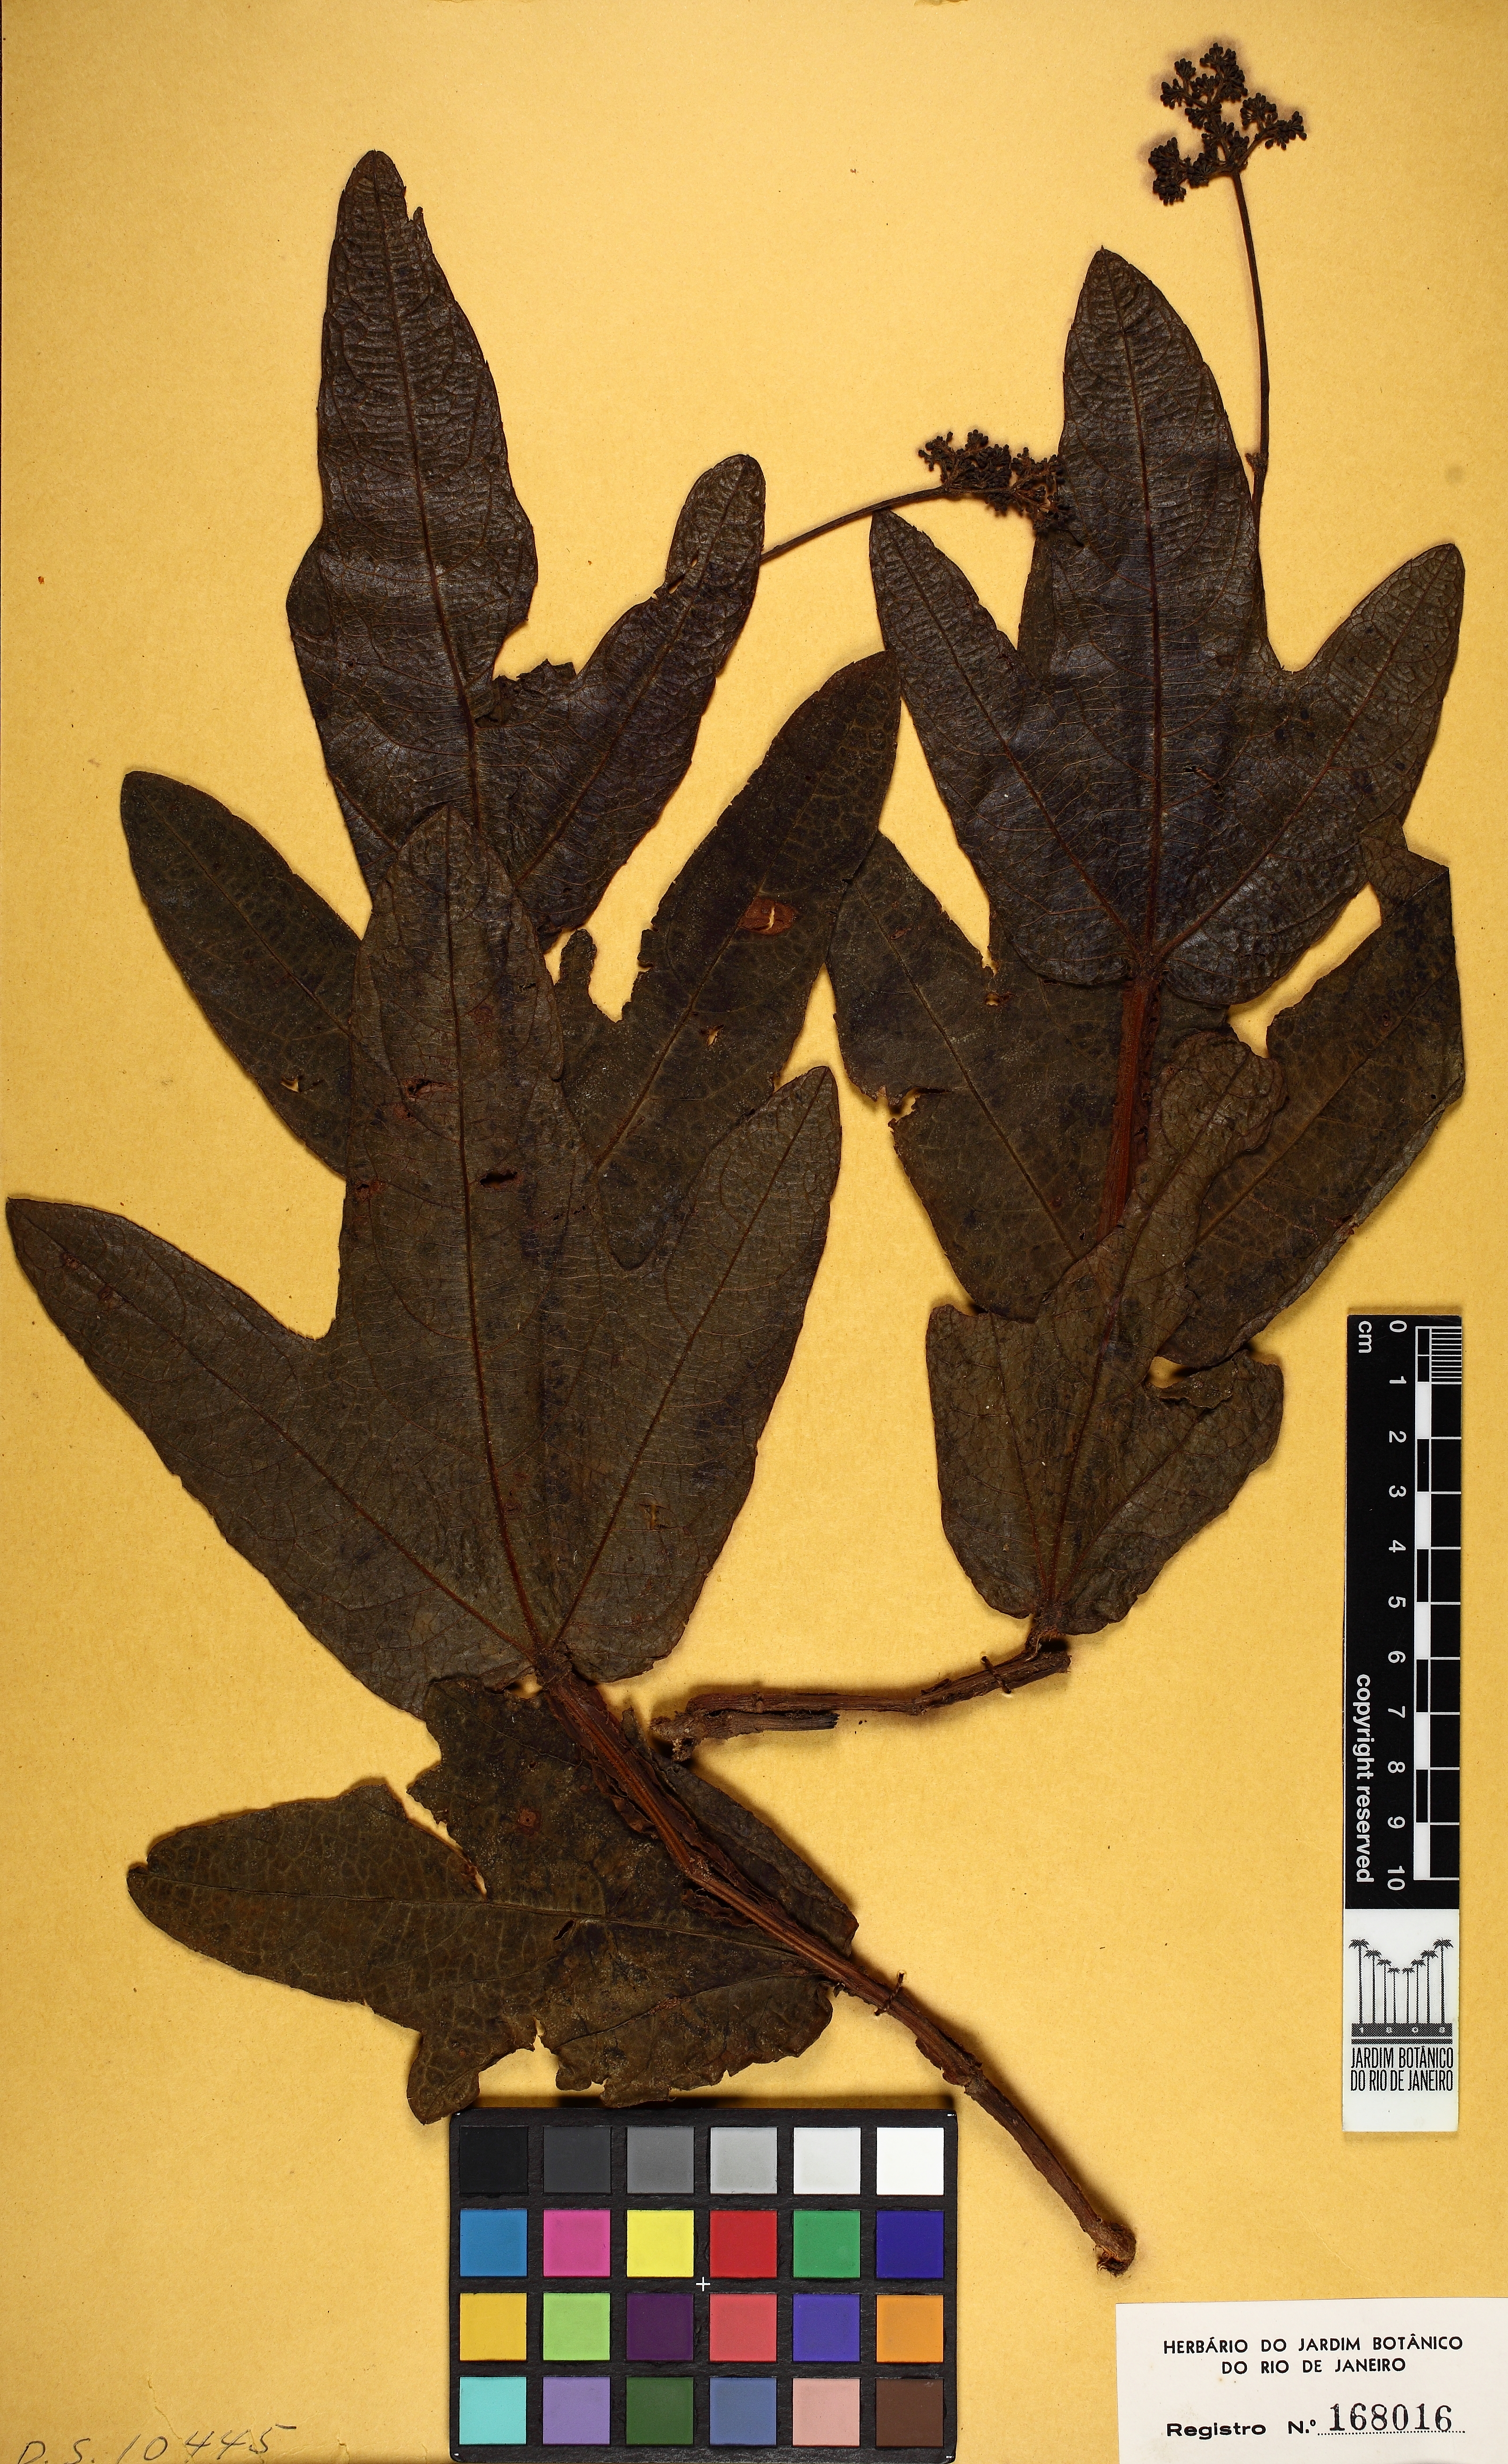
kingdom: Plantae
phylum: Tracheophyta
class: Magnoliopsida
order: Vitales
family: Vitaceae
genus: Cissus
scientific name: Cissus erosa
